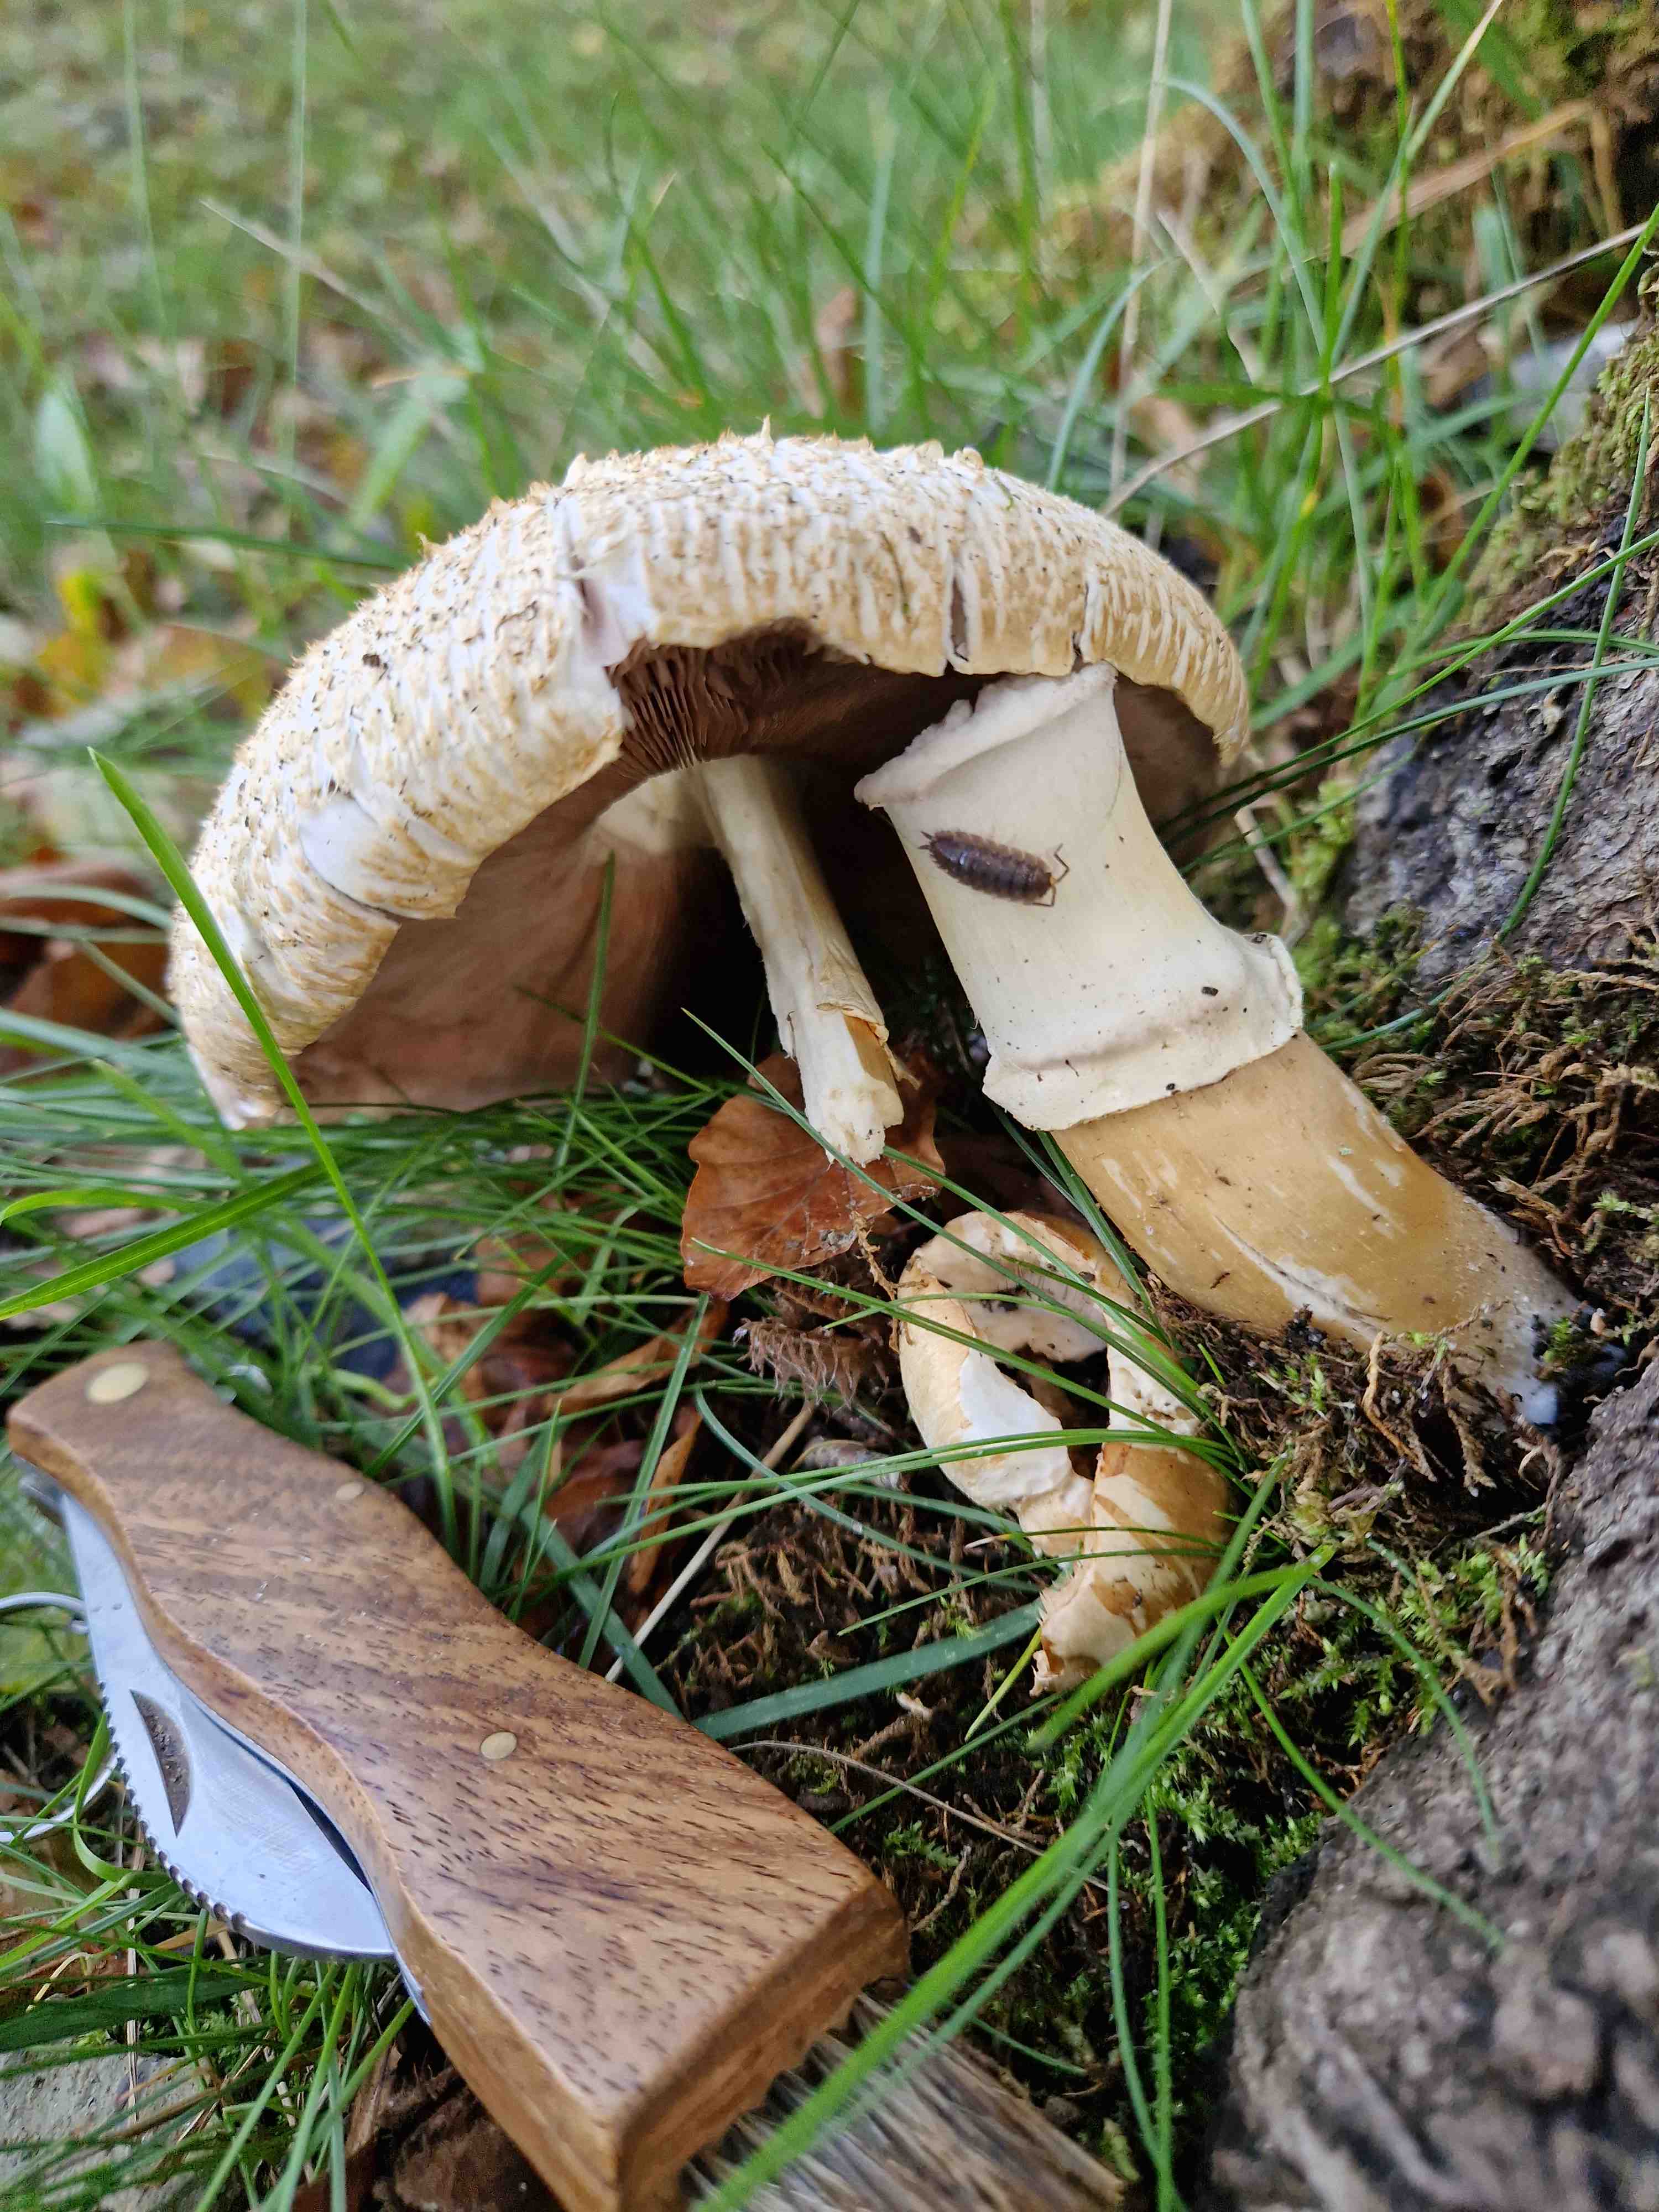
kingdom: Fungi
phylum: Basidiomycota
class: Agaricomycetes
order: Agaricales
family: Agaricaceae
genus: Agaricus
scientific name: Agaricus augustus
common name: prægtig champignon
